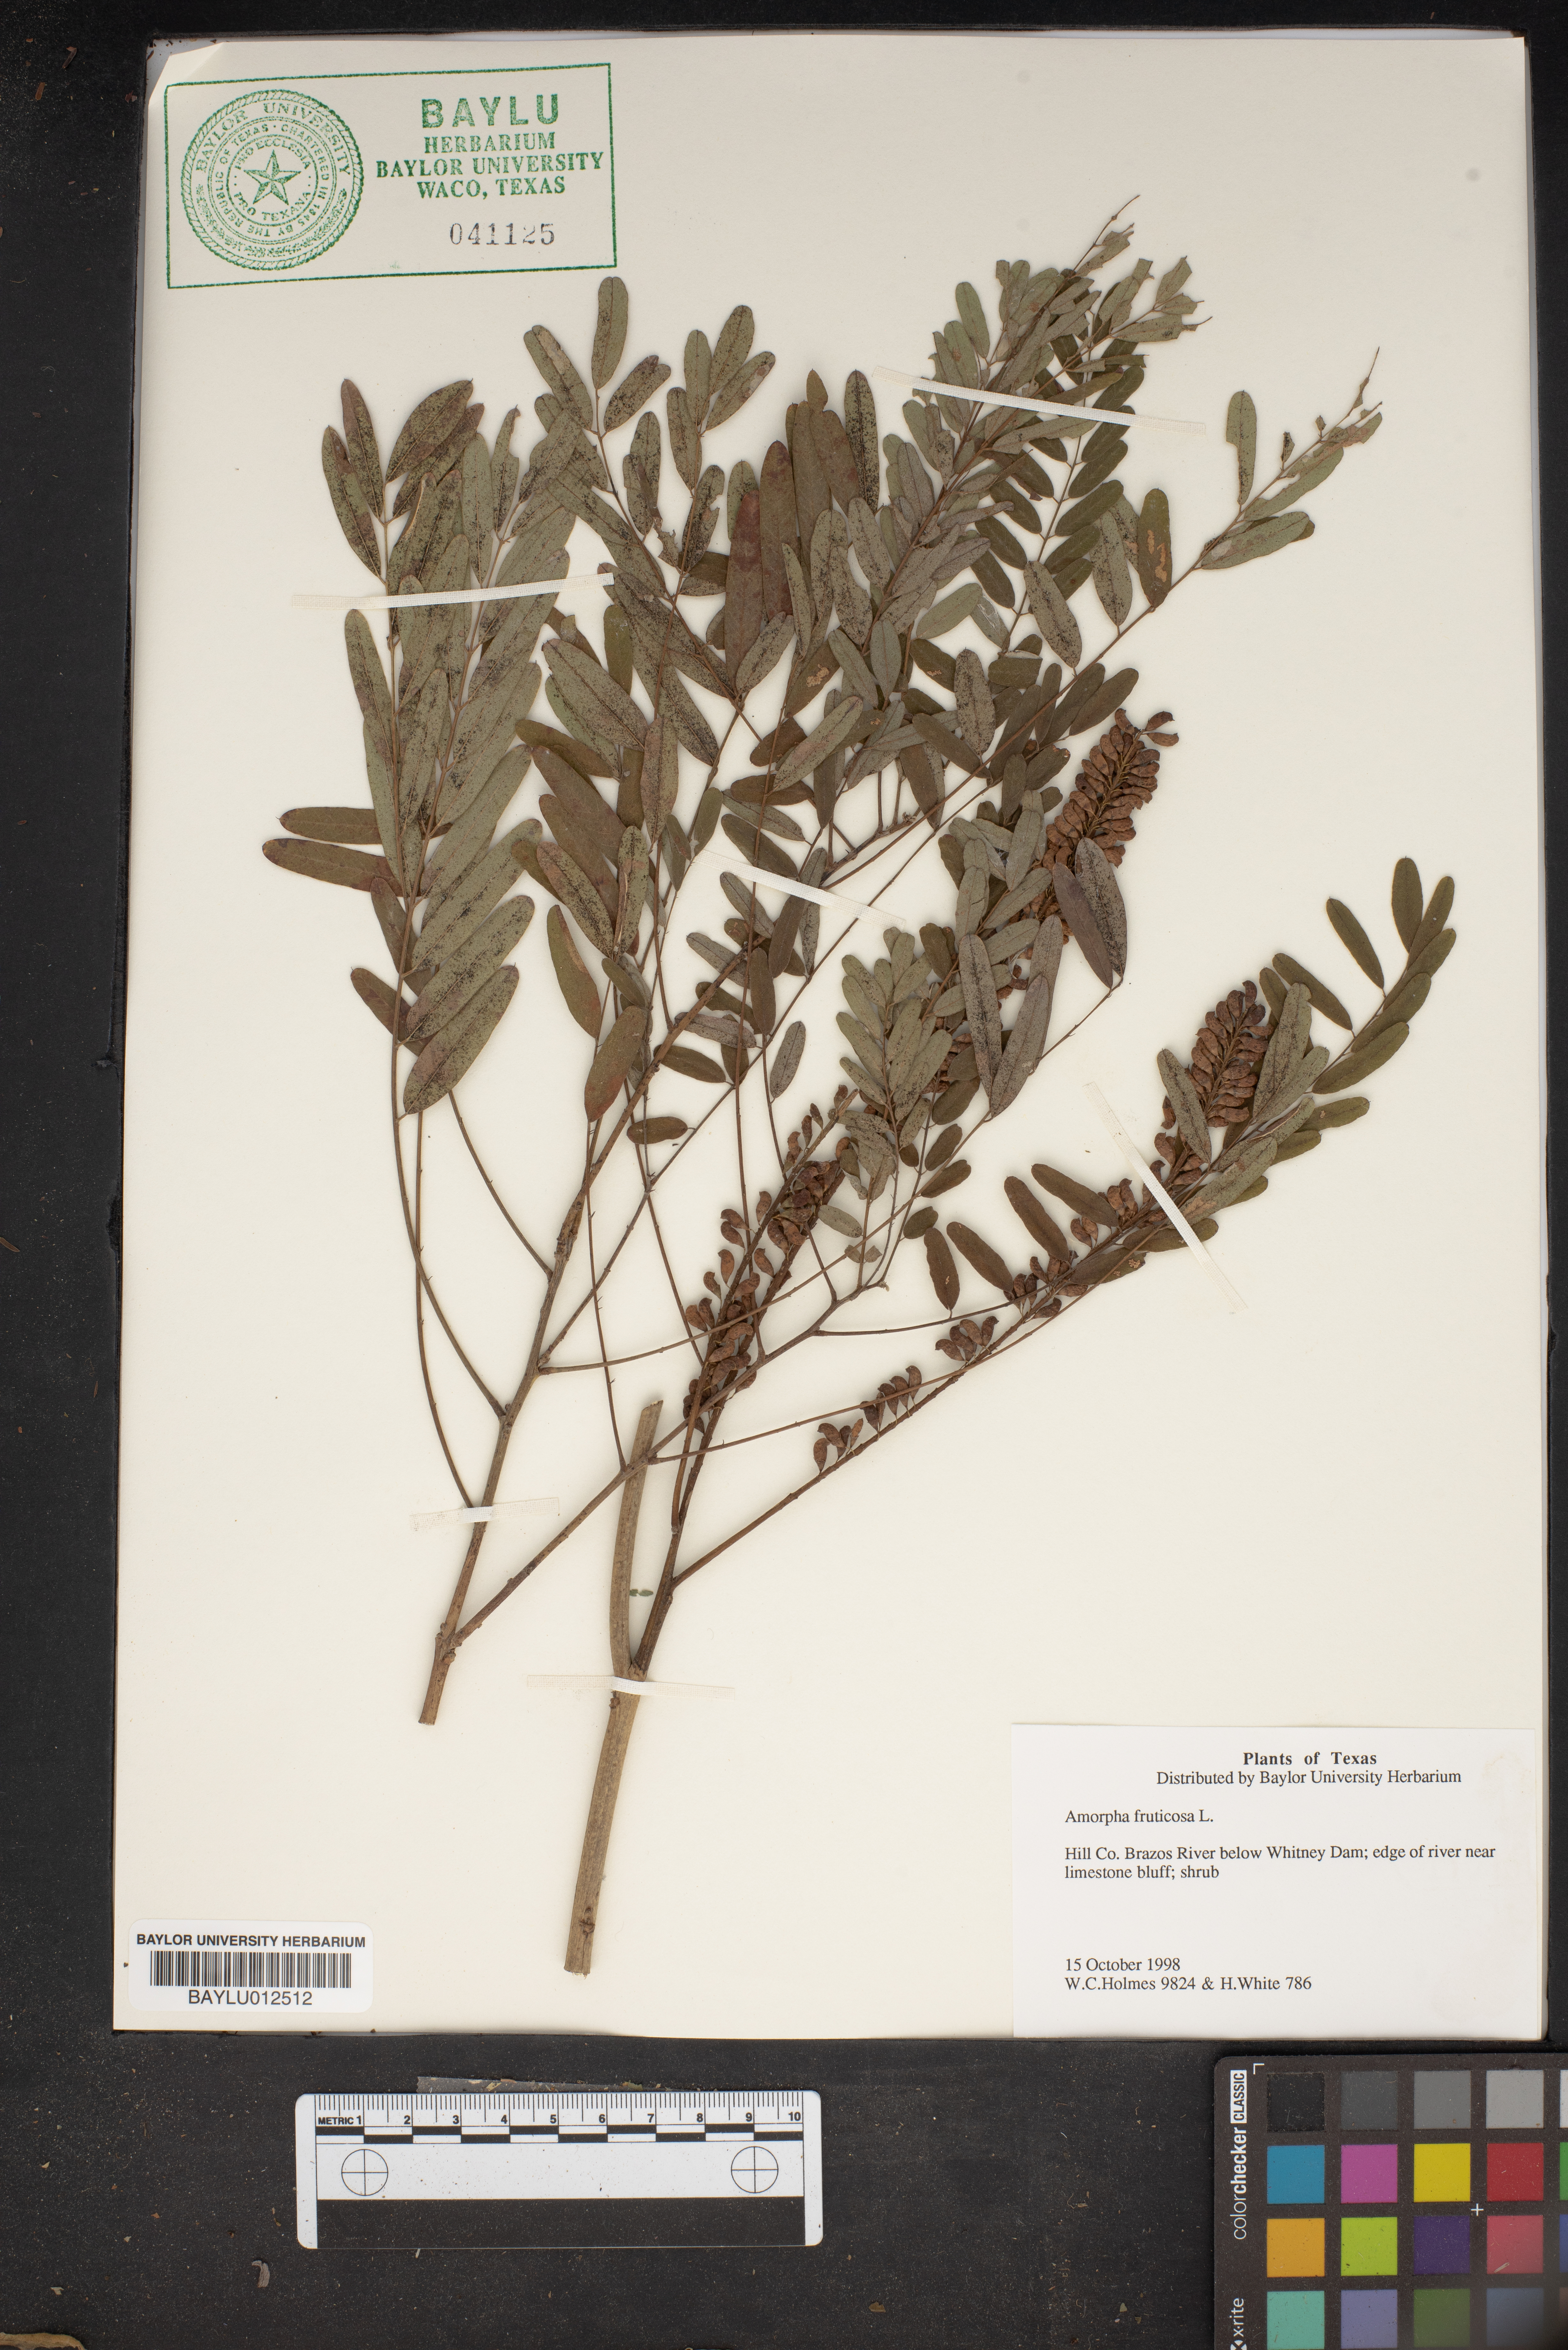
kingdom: Plantae
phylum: Tracheophyta
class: Magnoliopsida
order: Fabales
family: Fabaceae
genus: Amorpha
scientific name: Amorpha fruticosa
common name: False indigo
